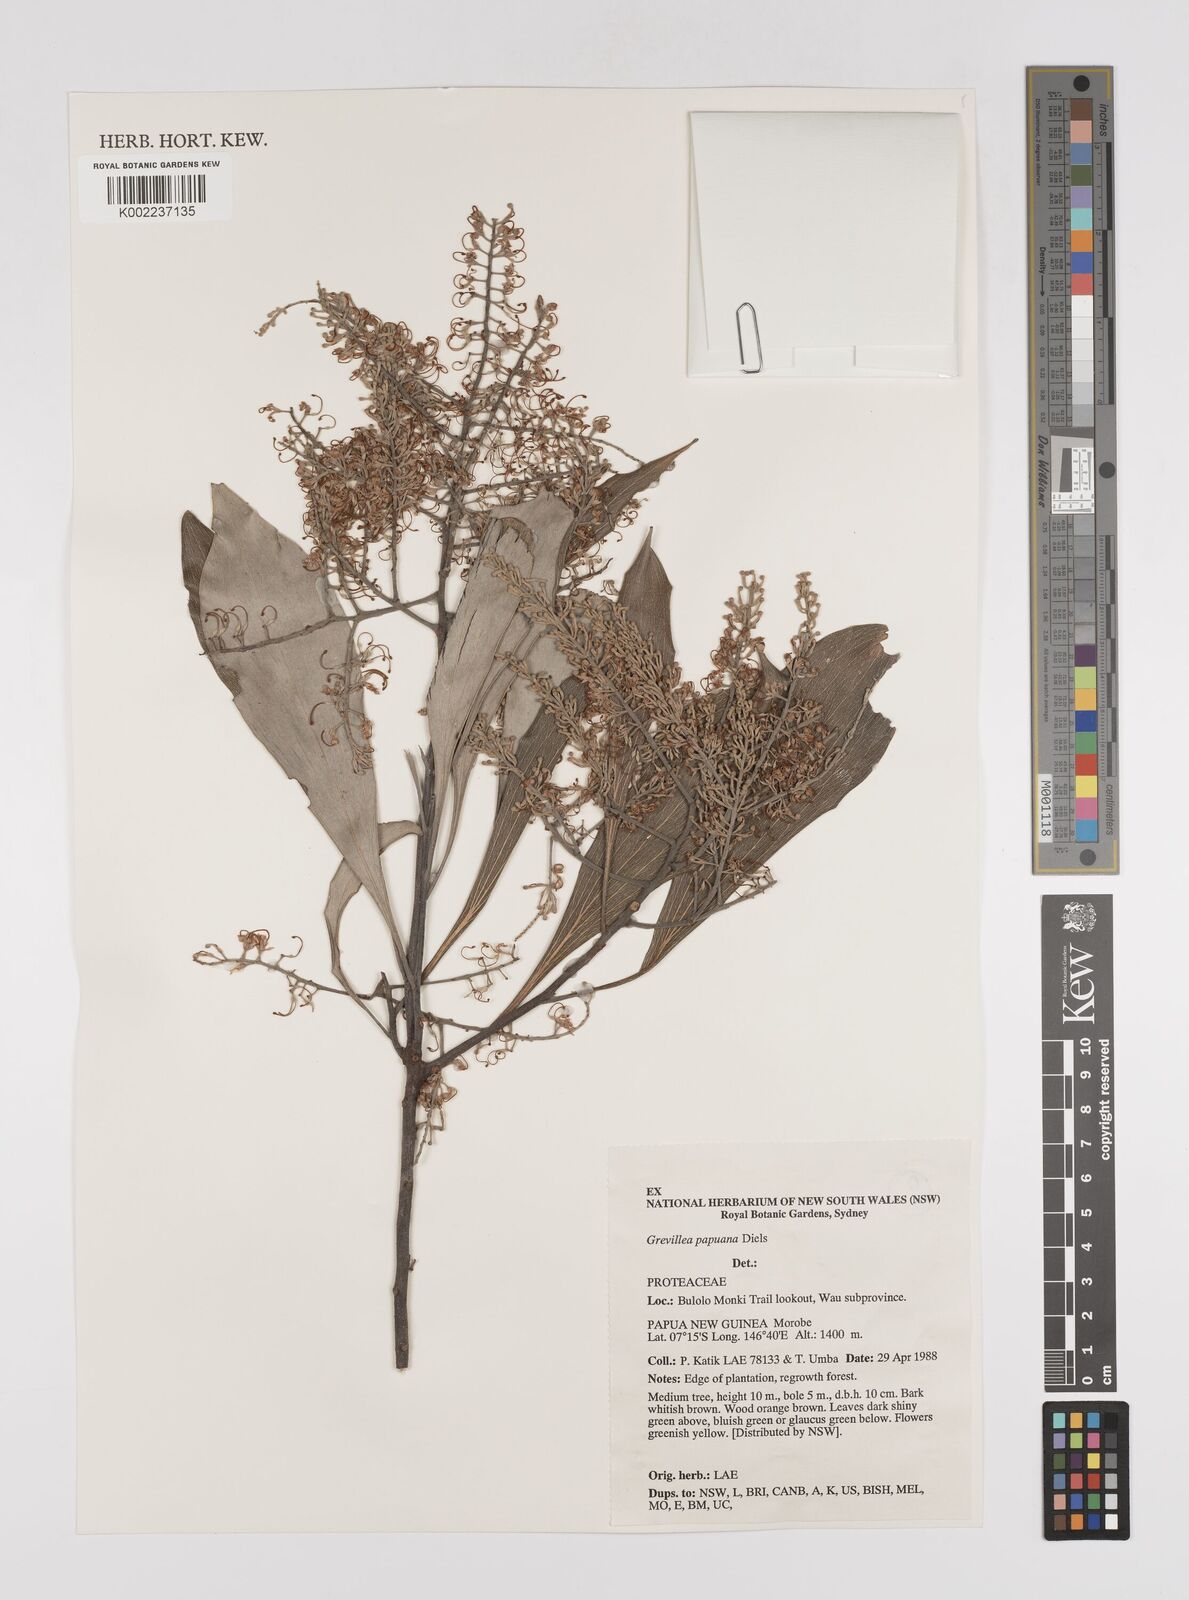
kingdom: Plantae
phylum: Tracheophyta
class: Magnoliopsida
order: Proteales
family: Proteaceae
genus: Grevillea
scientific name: Grevillea papuana
